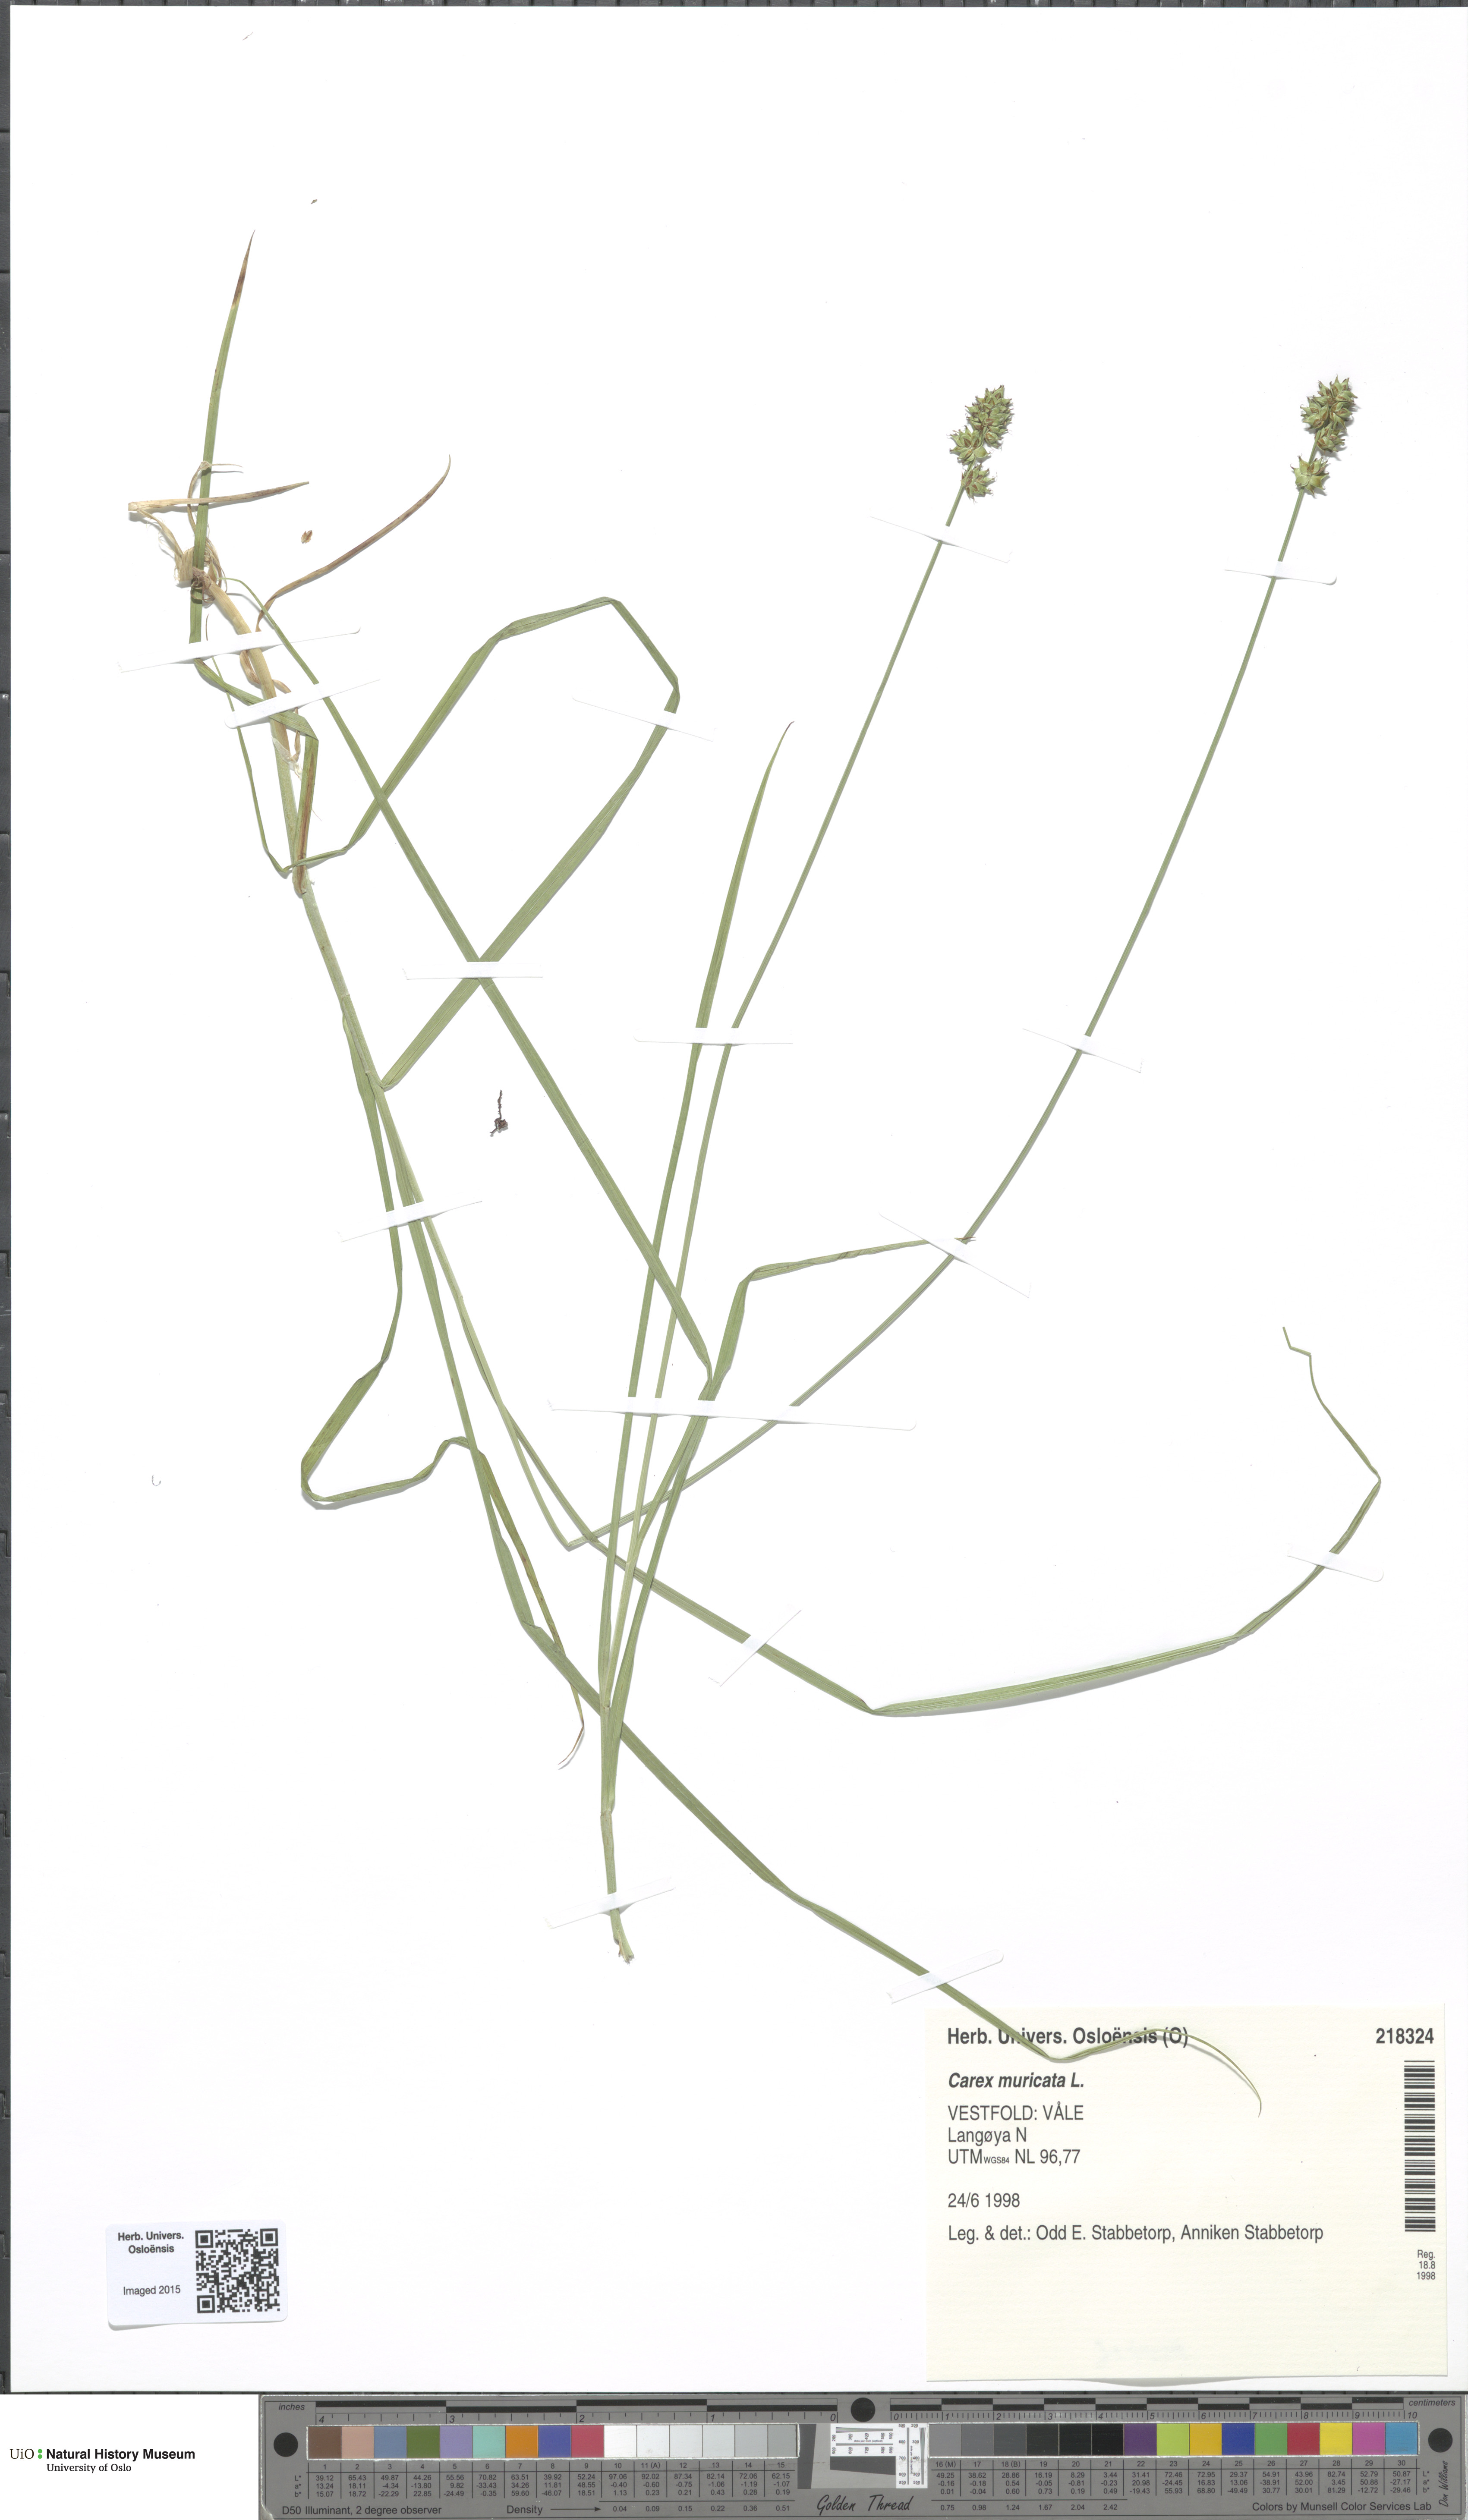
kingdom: Plantae
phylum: Tracheophyta
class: Liliopsida
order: Poales
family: Cyperaceae
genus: Carex
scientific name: Carex muricata
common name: Rough sedge
